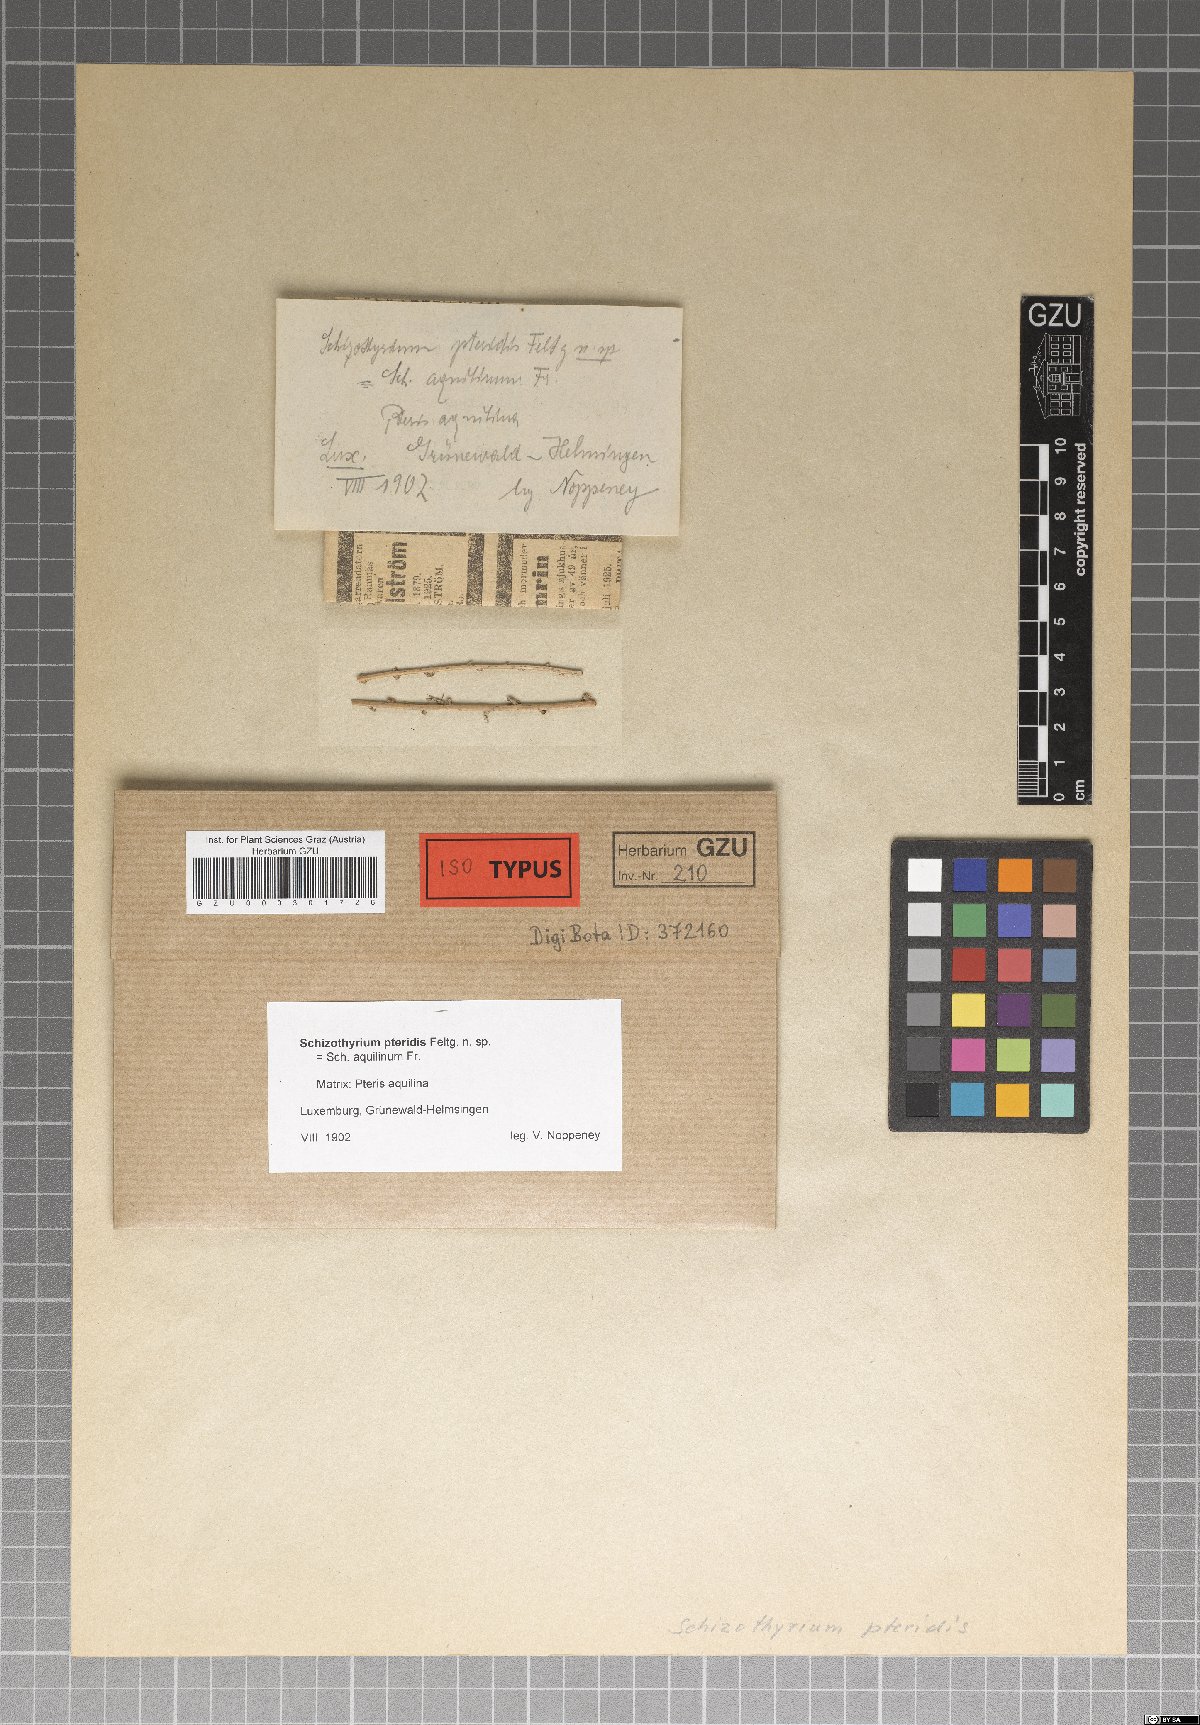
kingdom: Fungi
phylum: Ascomycota
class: Dothideomycetes
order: Mycosphaerellales
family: Schizothyriaceae
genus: Schizothyrium
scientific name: Schizothyrium pteridis
